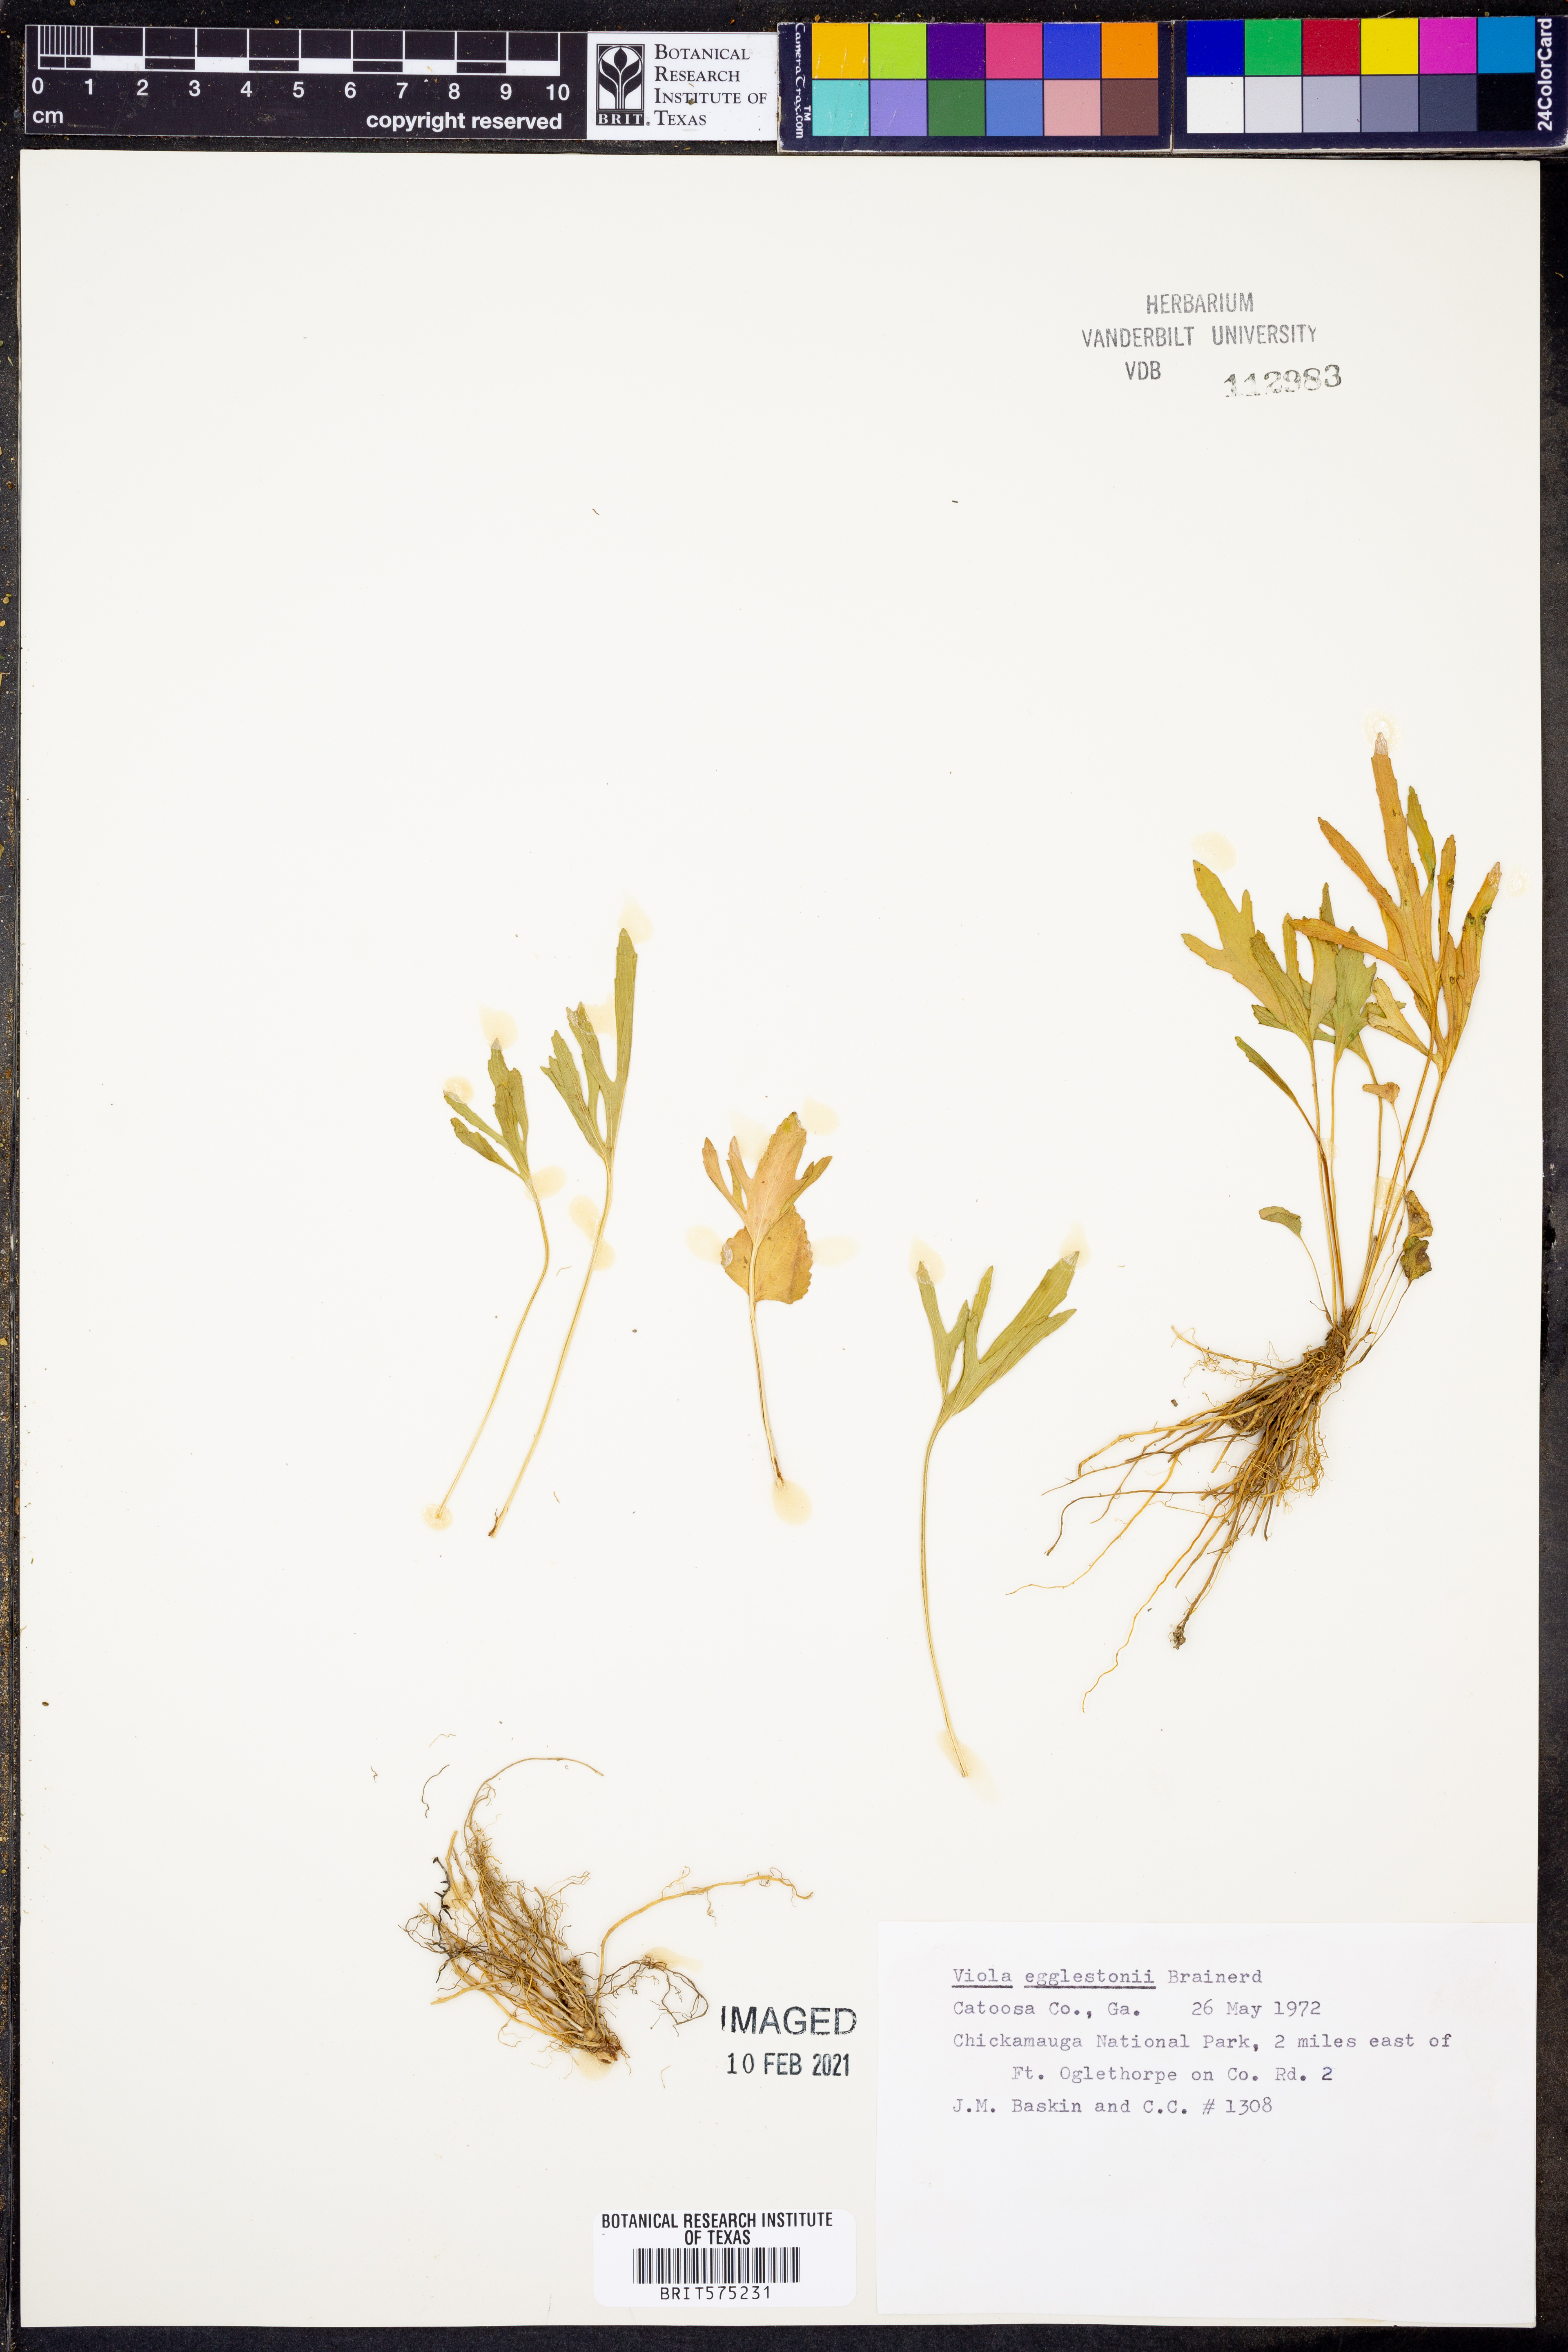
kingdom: Plantae
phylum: Tracheophyta
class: Magnoliopsida
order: Malpighiales
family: Violaceae
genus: Viola
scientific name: Viola egglestonii
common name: Glade violet
